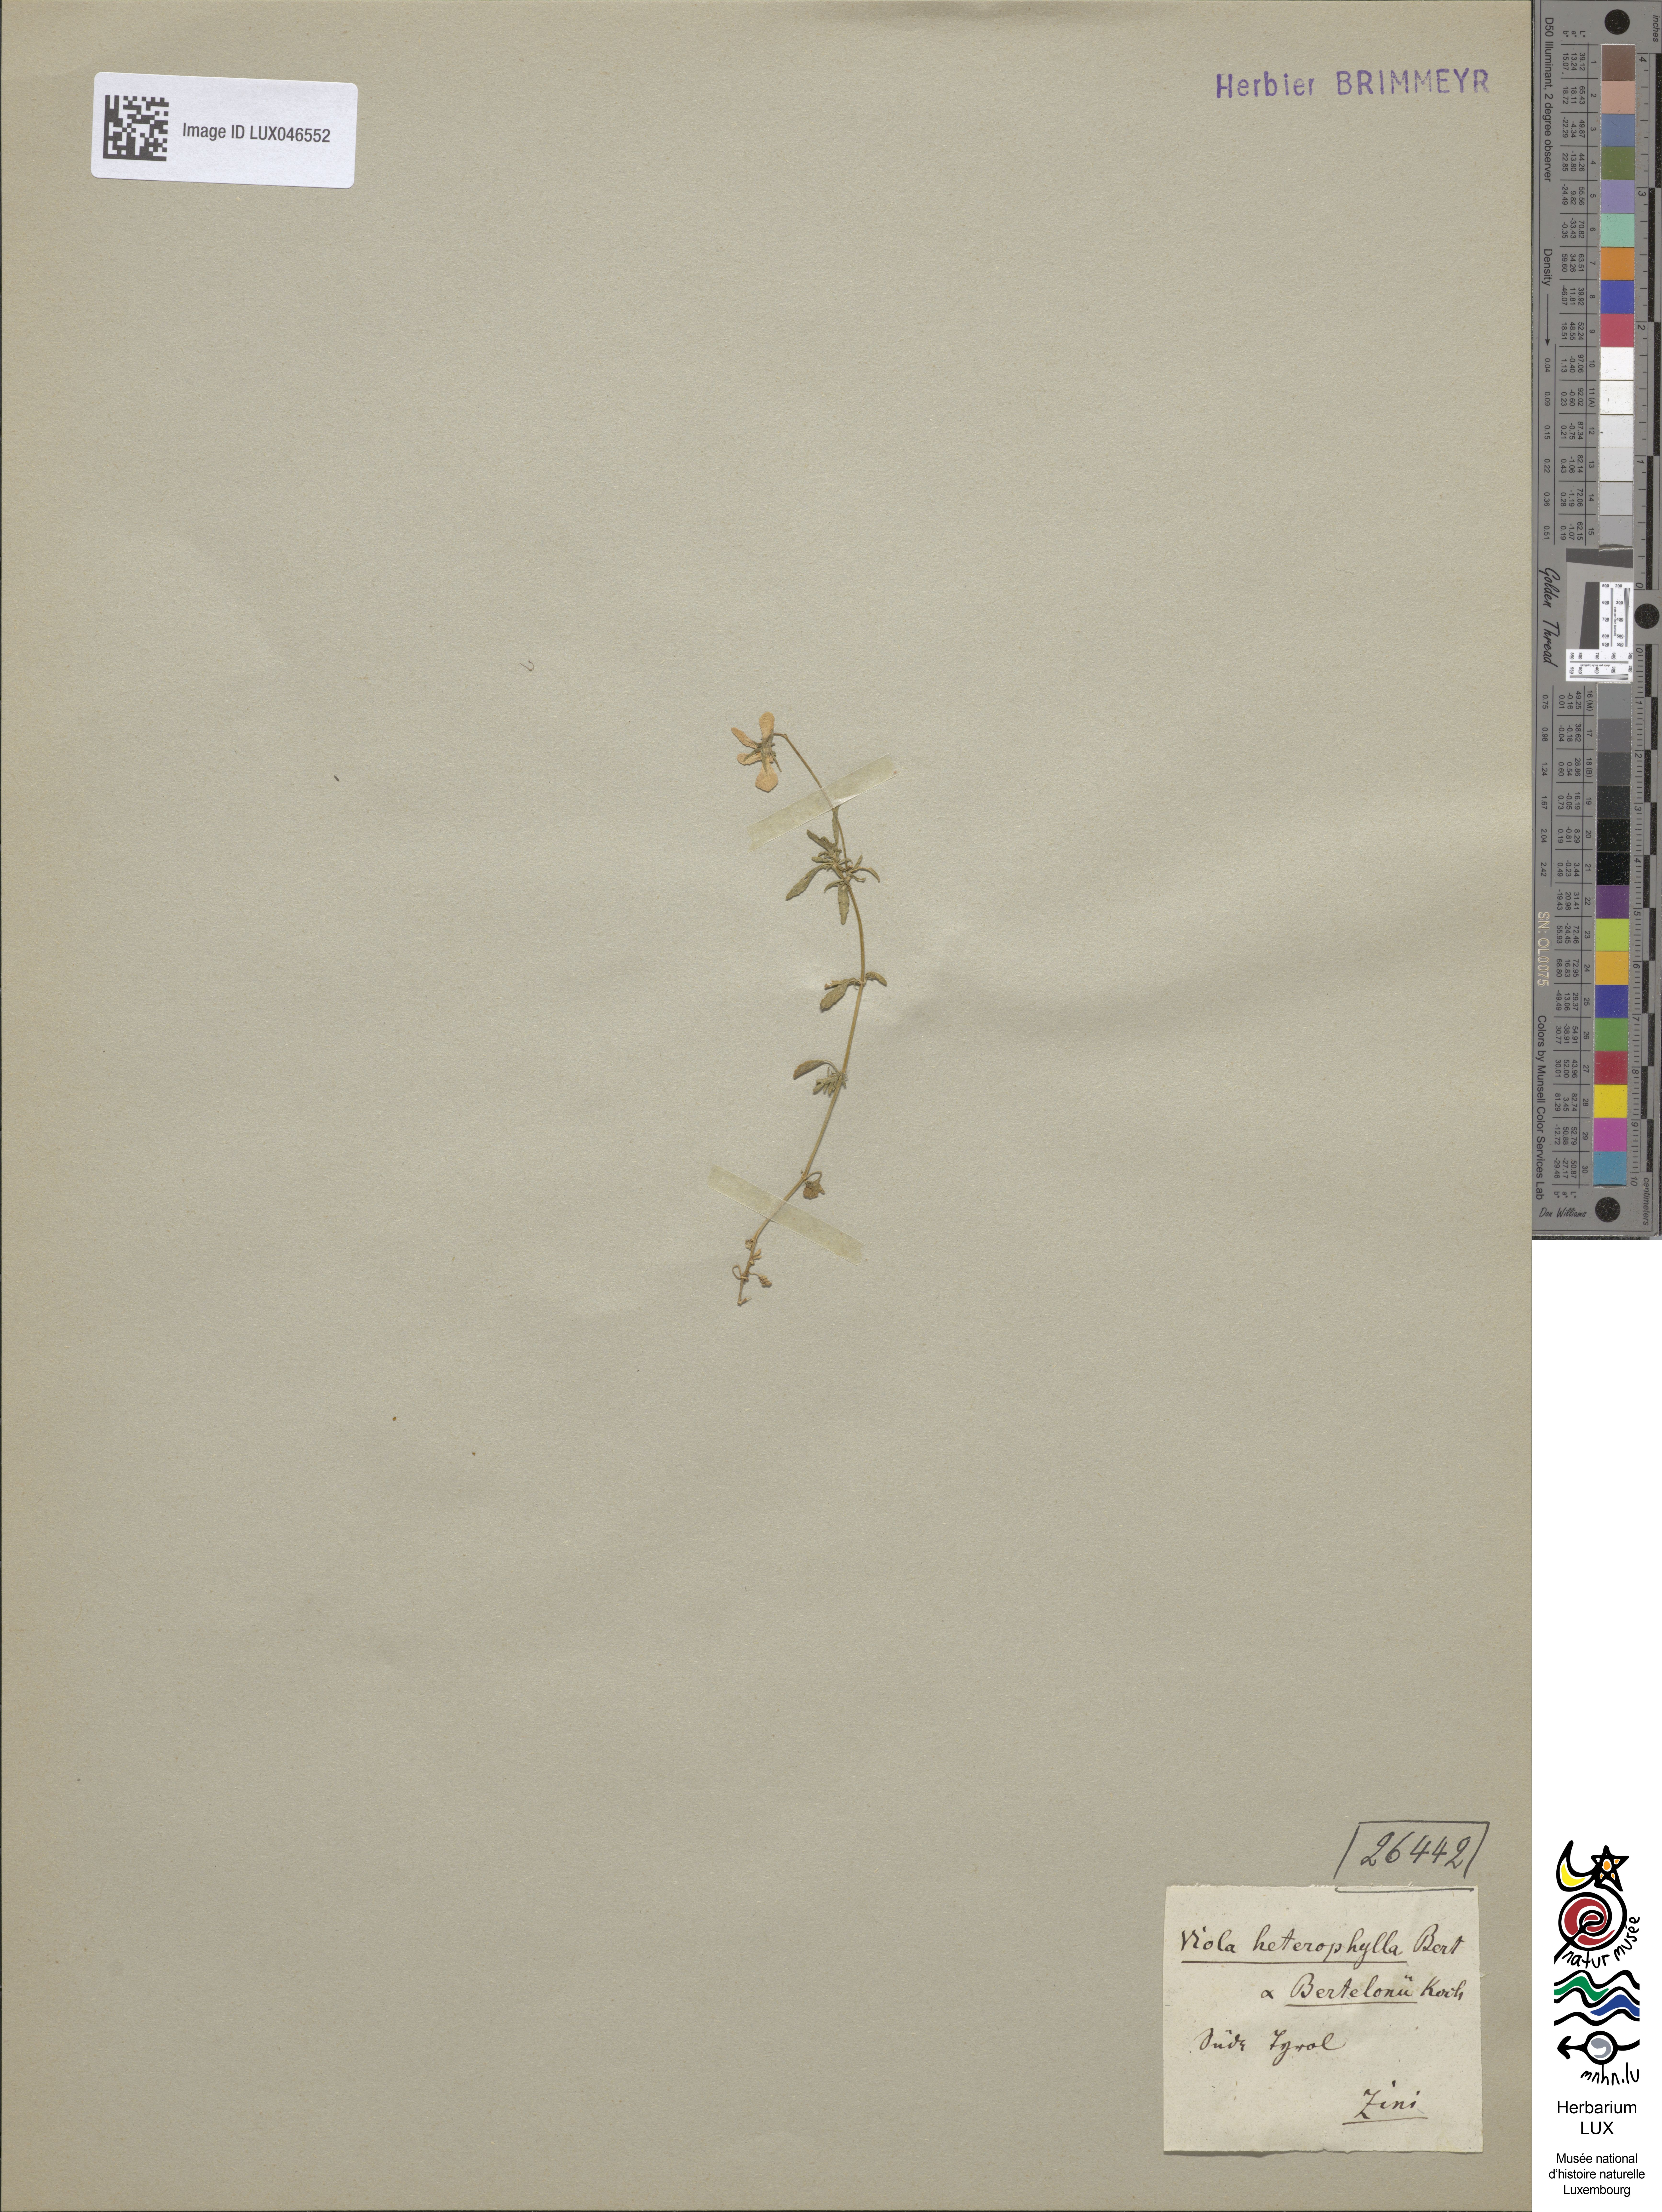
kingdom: Plantae
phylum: Tracheophyta
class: Magnoliopsida
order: Malpighiales
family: Violaceae
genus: Viola
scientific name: Viola bertolonii
